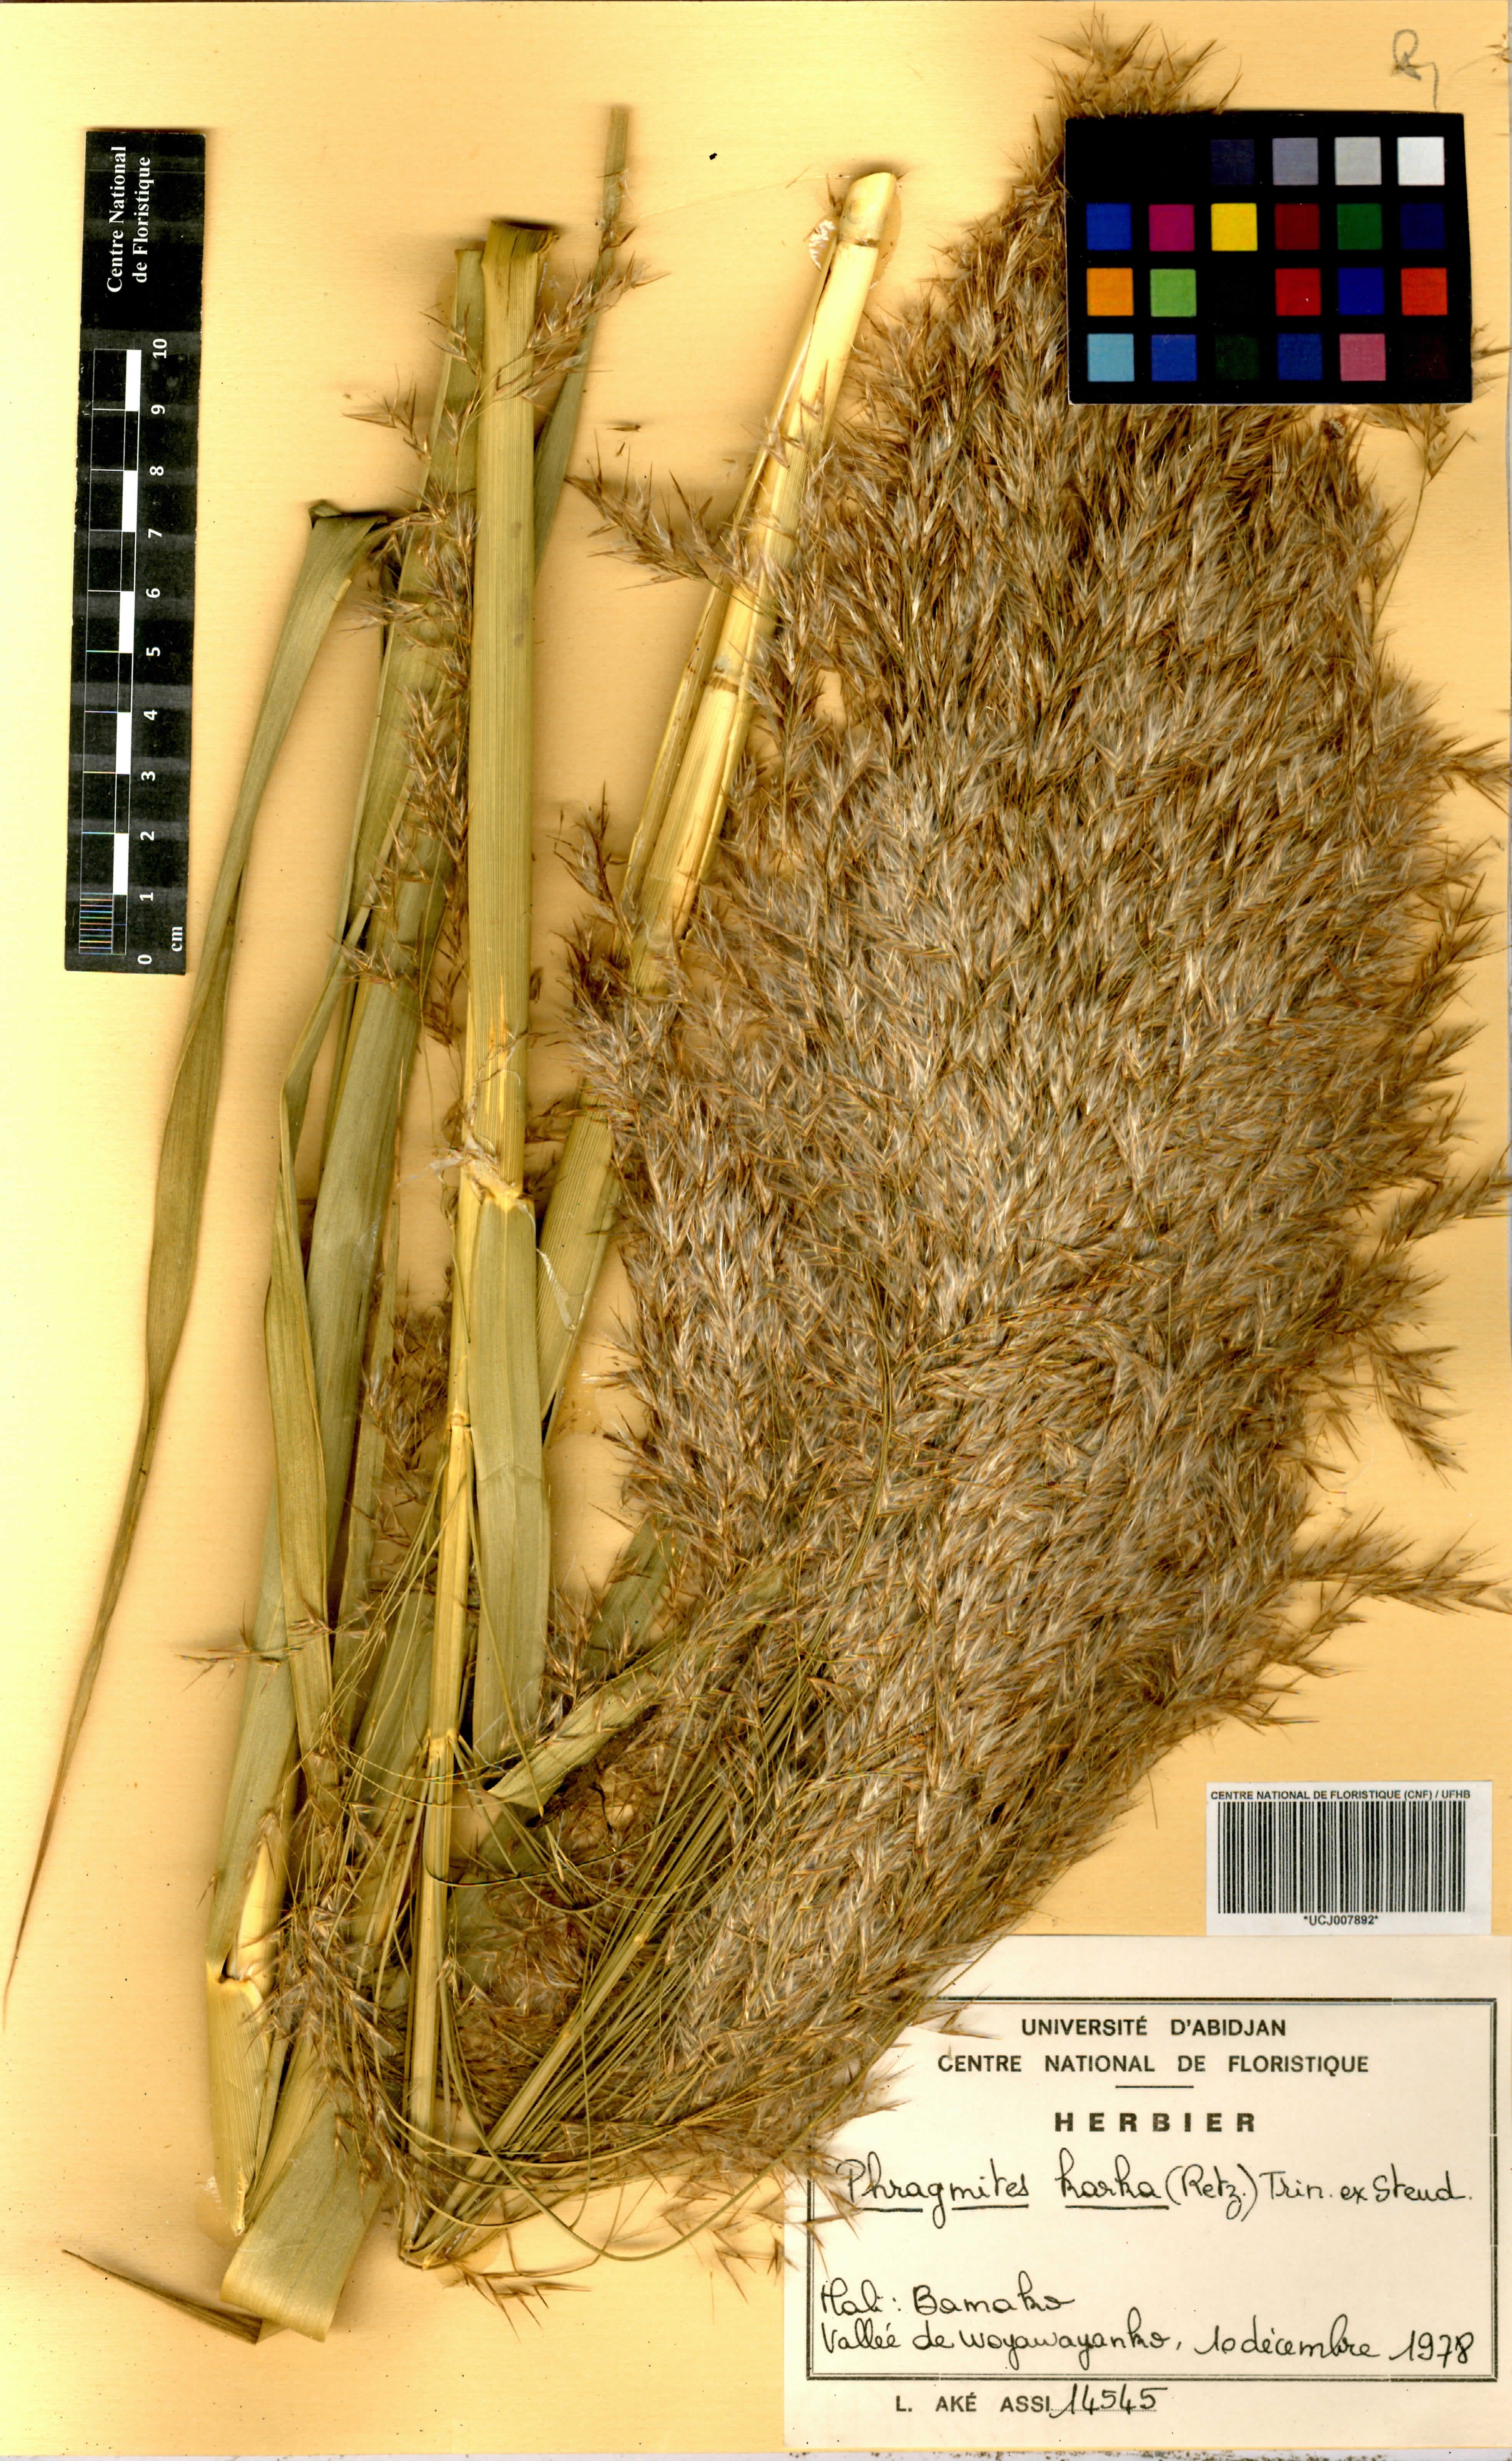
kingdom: Plantae
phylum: Tracheophyta
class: Liliopsida
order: Poales
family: Poaceae
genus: Phragmites
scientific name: Phragmites karka
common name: Tropical reed
